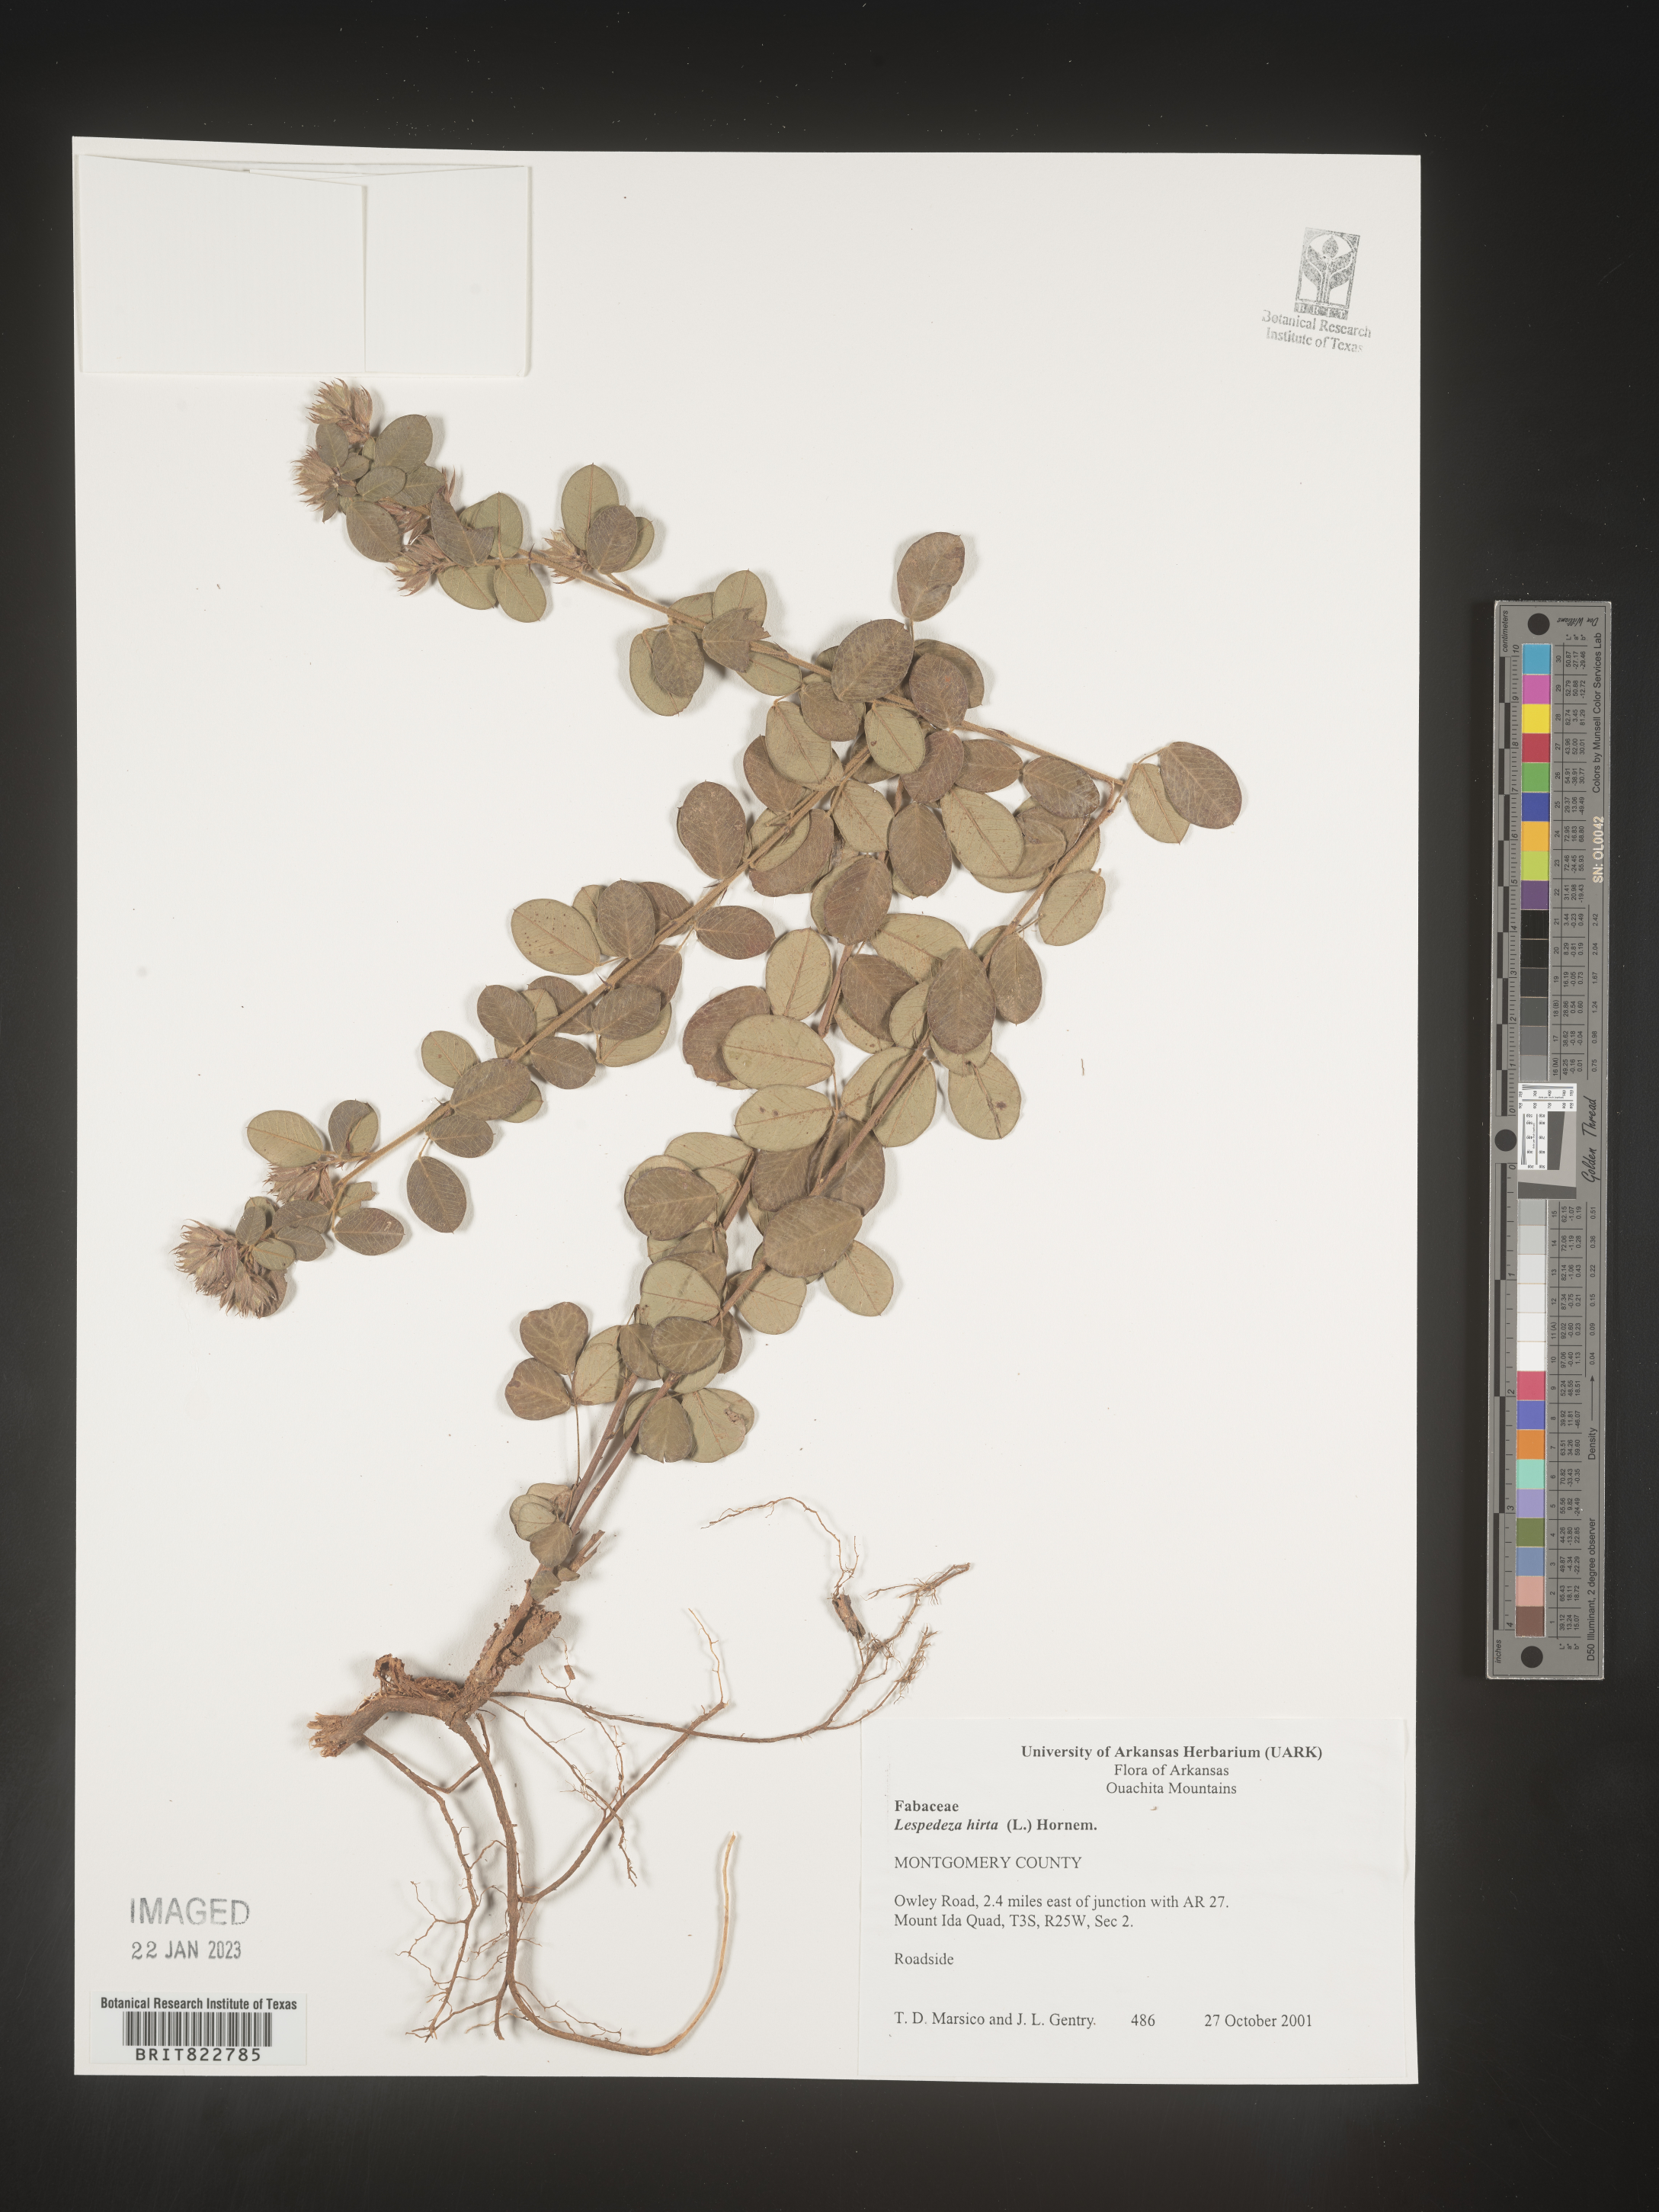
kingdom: Plantae
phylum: Tracheophyta
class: Magnoliopsida
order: Fabales
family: Fabaceae
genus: Lespedeza
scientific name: Lespedeza hirta
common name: Hairy lespedeza
